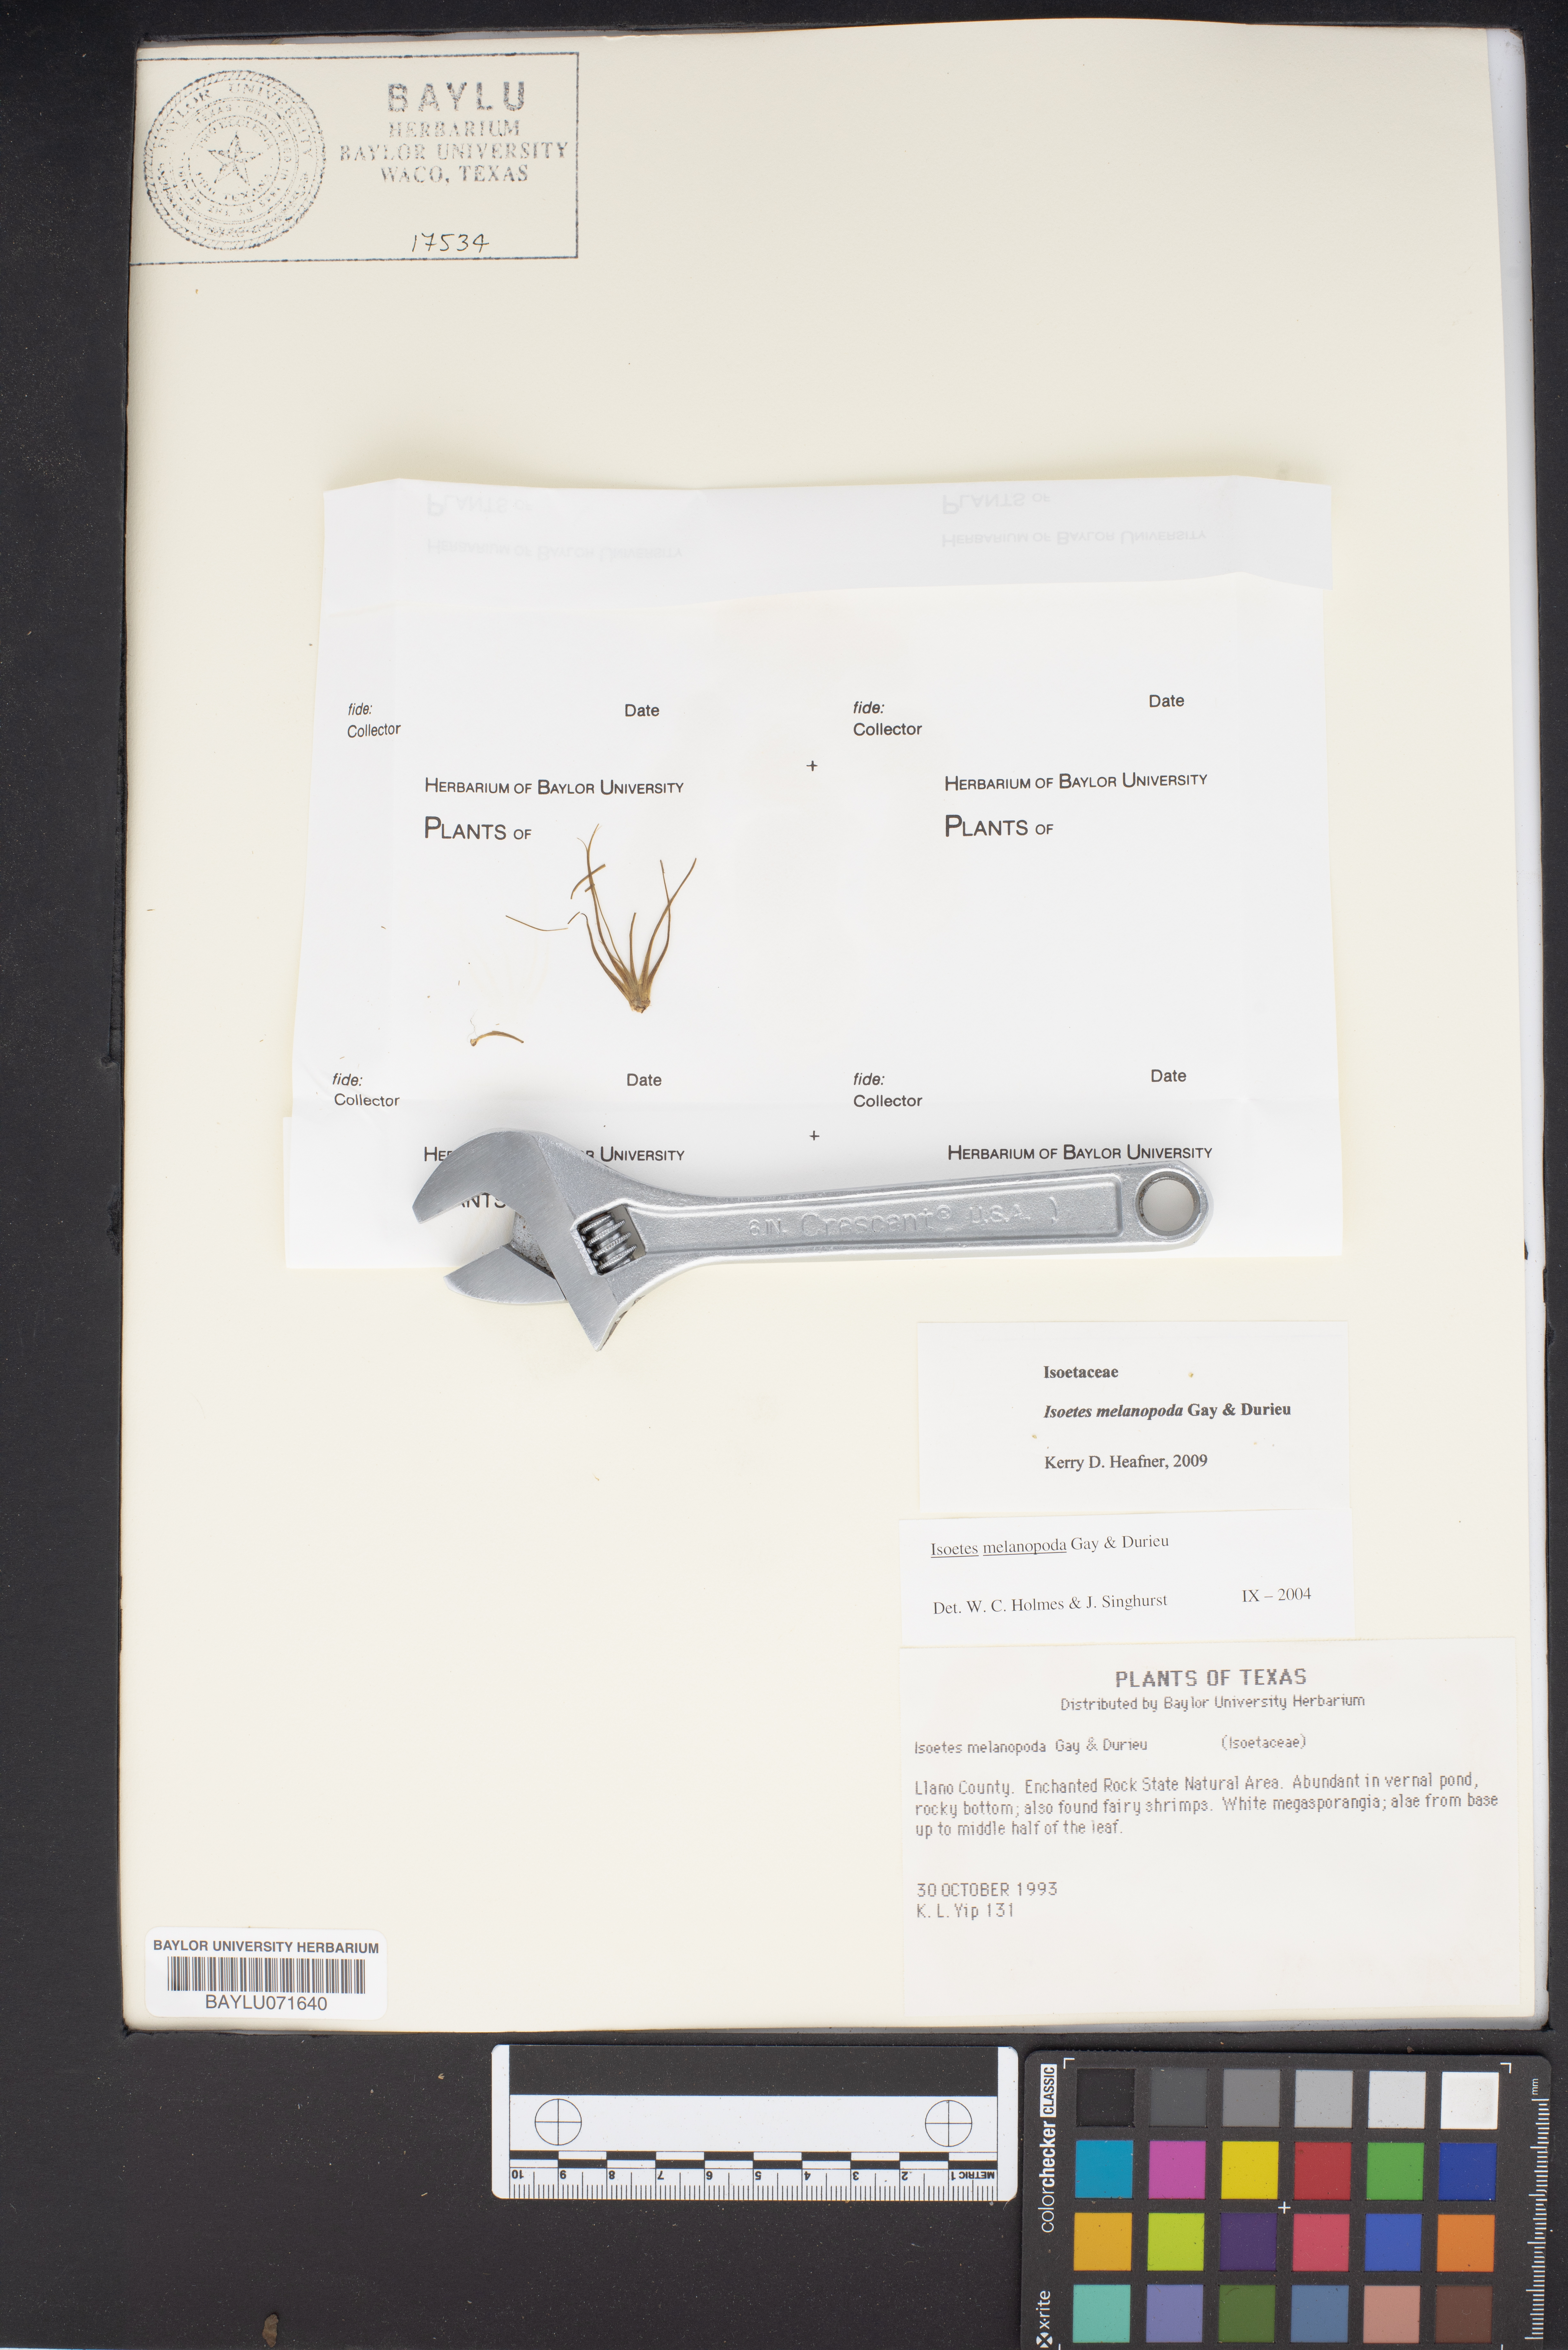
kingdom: Plantae
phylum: Tracheophyta
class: Lycopodiopsida
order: Isoetales
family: Isoetaceae
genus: Isoetes
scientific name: Isoetes melanopoda
